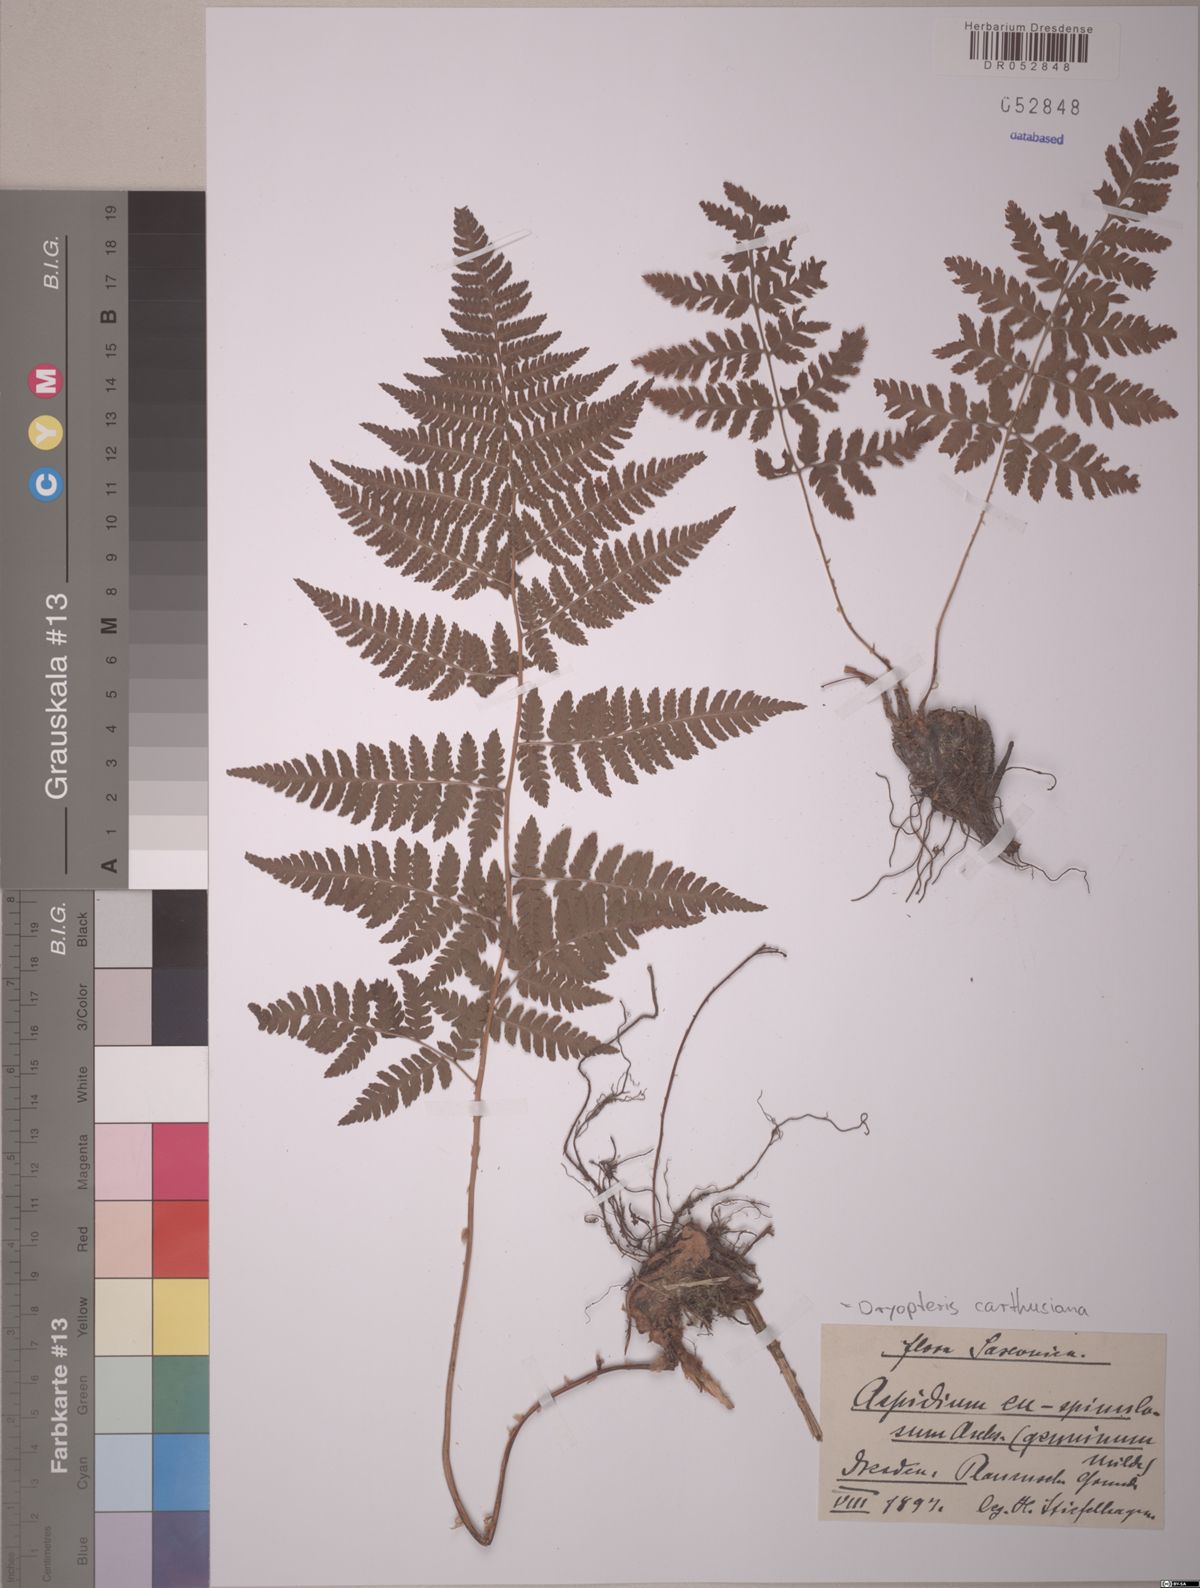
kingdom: Plantae
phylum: Tracheophyta
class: Polypodiopsida
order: Polypodiales
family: Dryopteridaceae
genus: Dryopteris
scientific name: Dryopteris carthusiana
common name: Narrow buckler-fern
